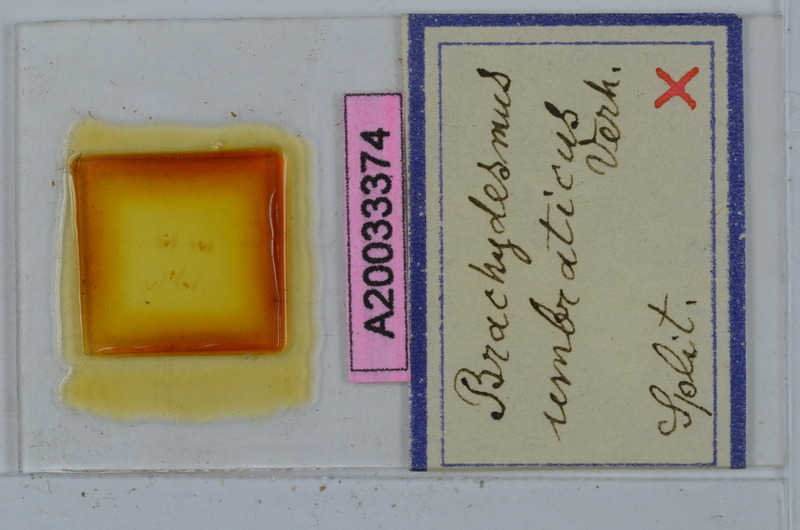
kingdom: Animalia
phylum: Arthropoda
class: Diplopoda
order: Polydesmida
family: Polydesmidae
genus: Brachydesmus
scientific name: Brachydesmus umbraticus
